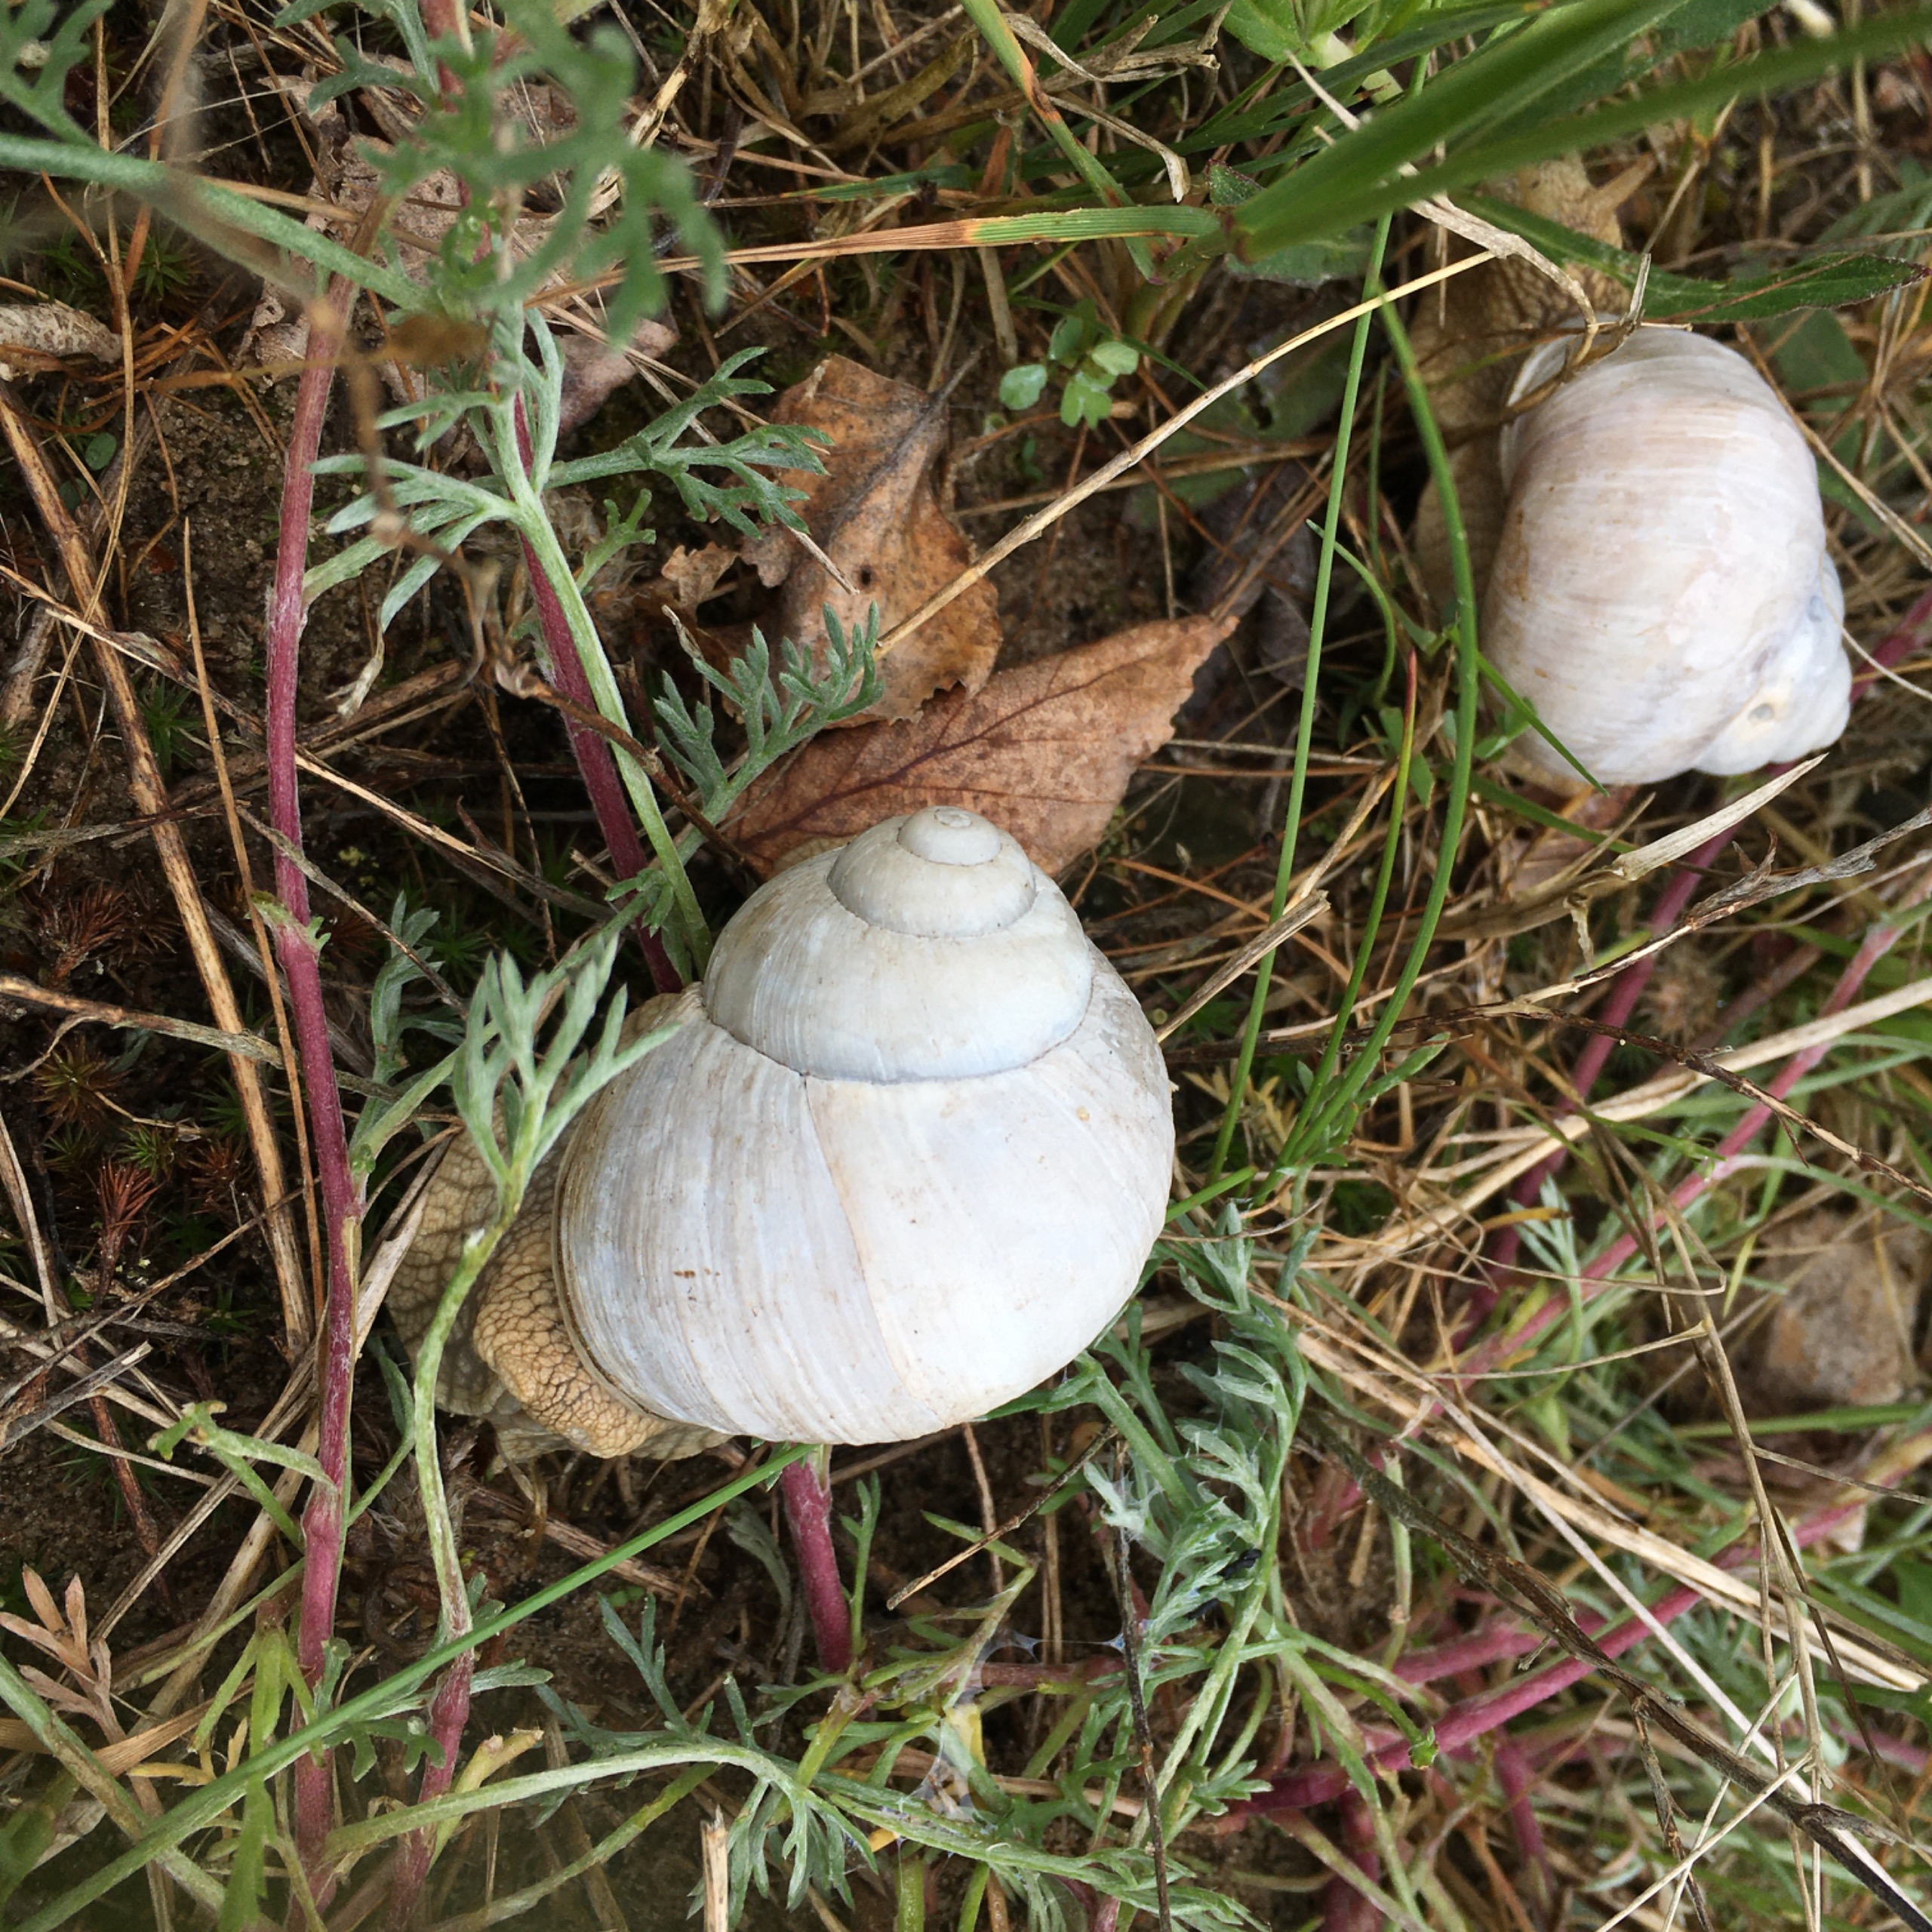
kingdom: Animalia
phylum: Mollusca
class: Gastropoda
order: Stylommatophora
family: Helicidae
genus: Helix
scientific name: Helix pomatia
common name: Vinbjergsnegl
